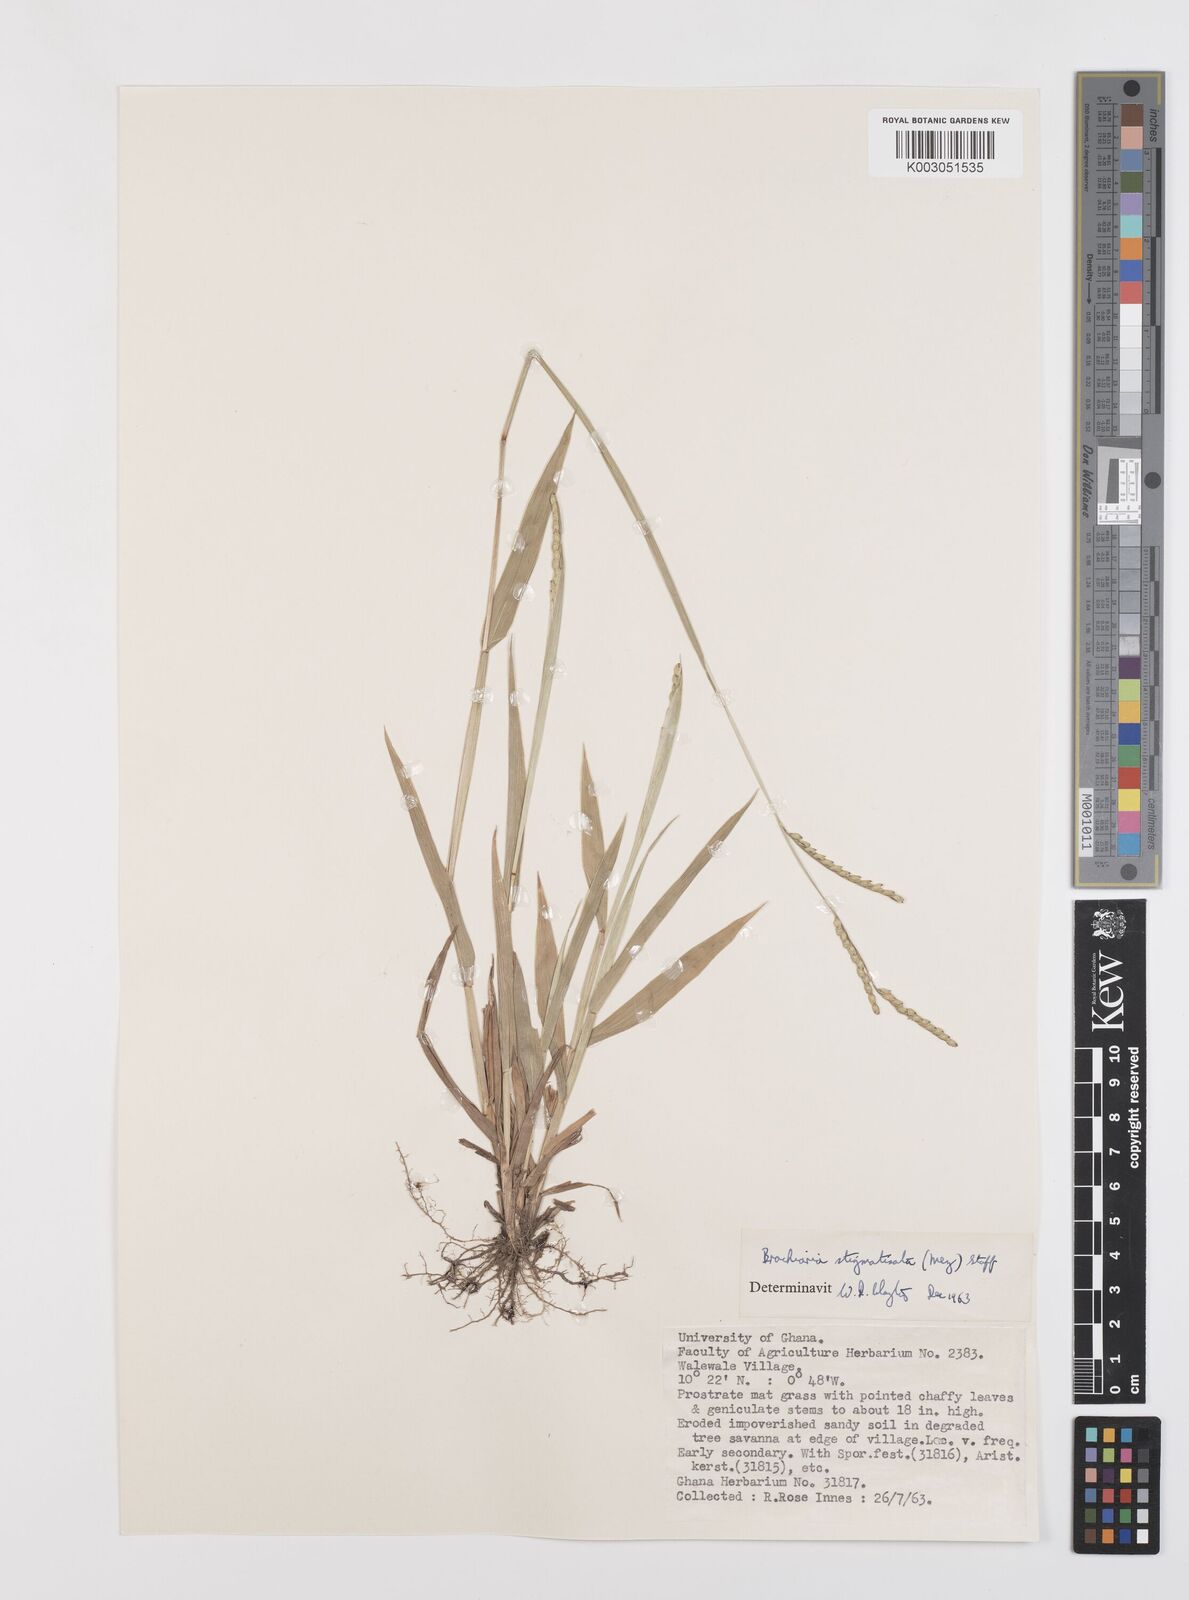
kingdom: Plantae
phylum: Tracheophyta
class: Liliopsida
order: Poales
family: Poaceae
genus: Urochloa
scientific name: Urochloa stigmatisata
